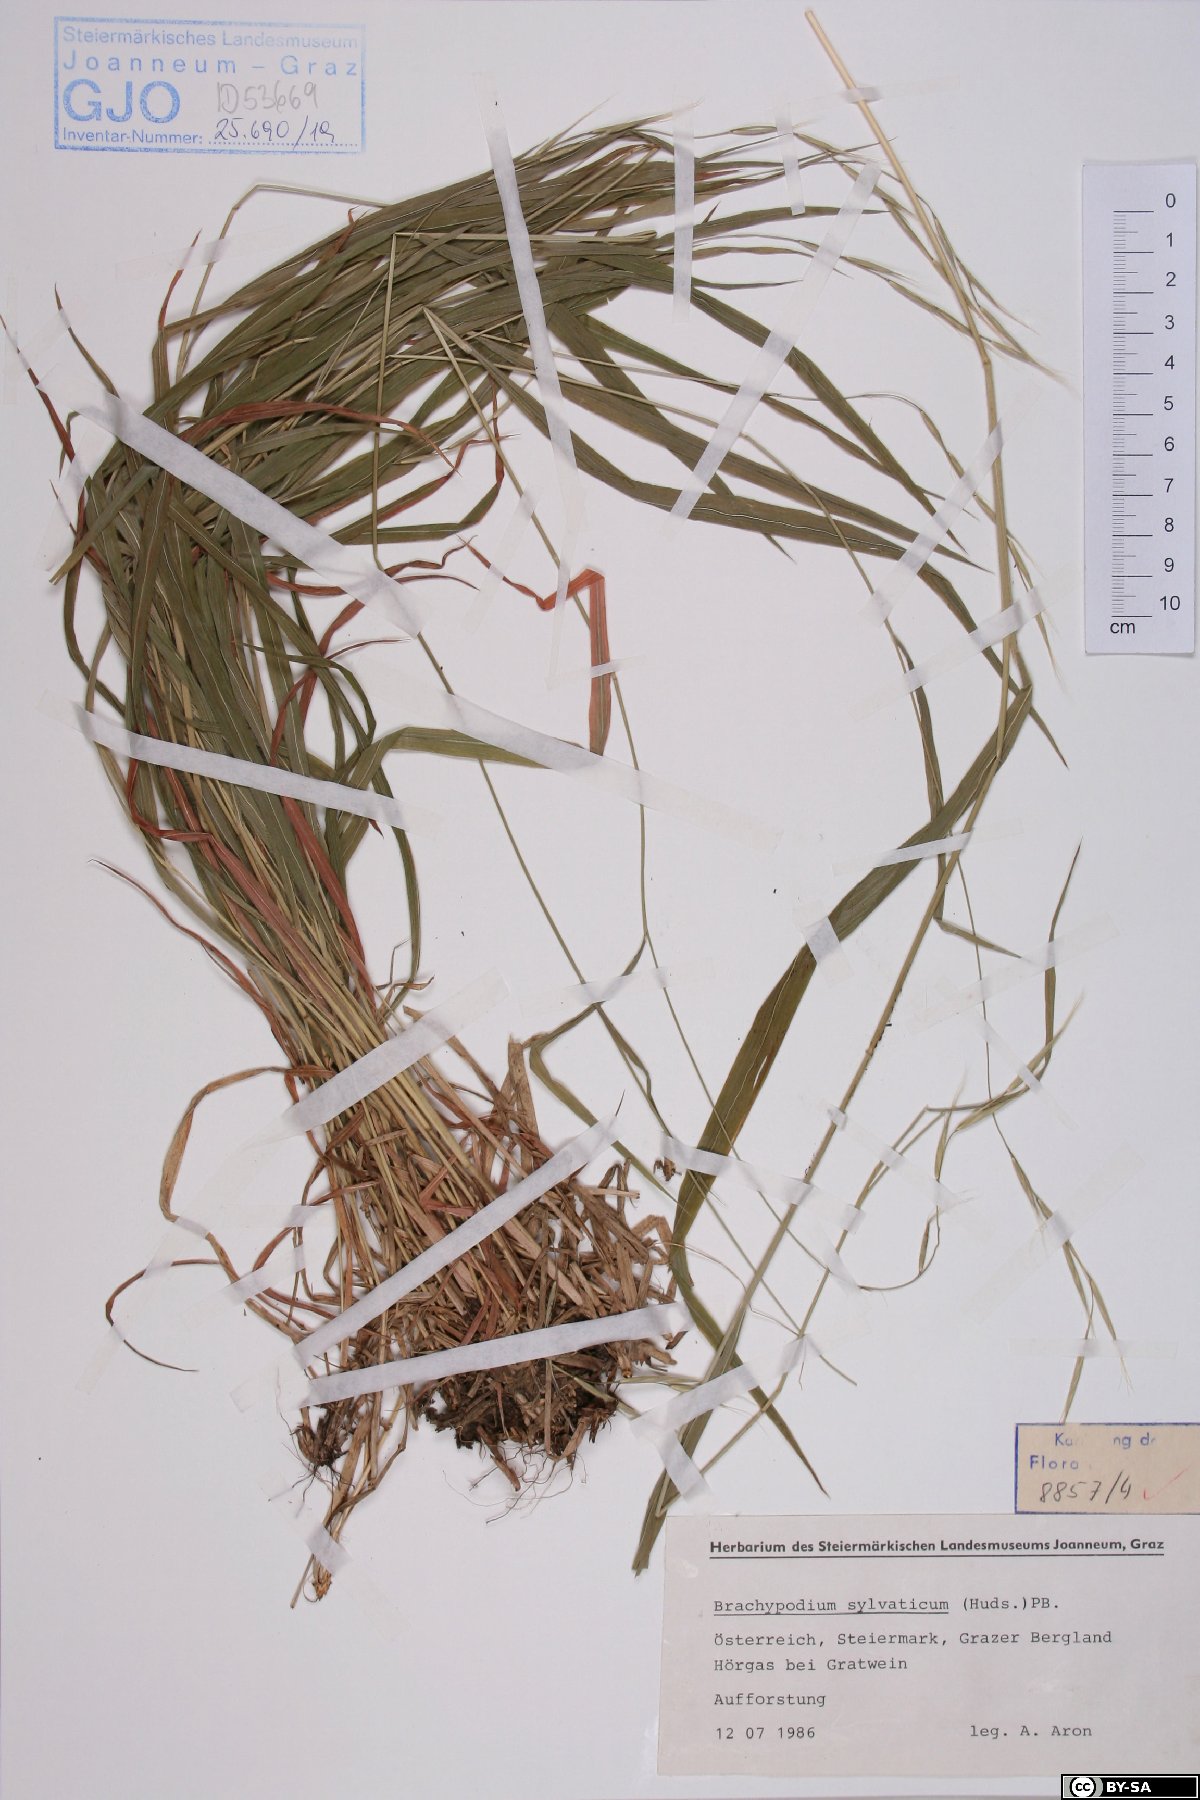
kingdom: Plantae
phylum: Tracheophyta
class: Liliopsida
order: Poales
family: Poaceae
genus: Brachypodium
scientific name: Brachypodium sylvaticum
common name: False-brome
